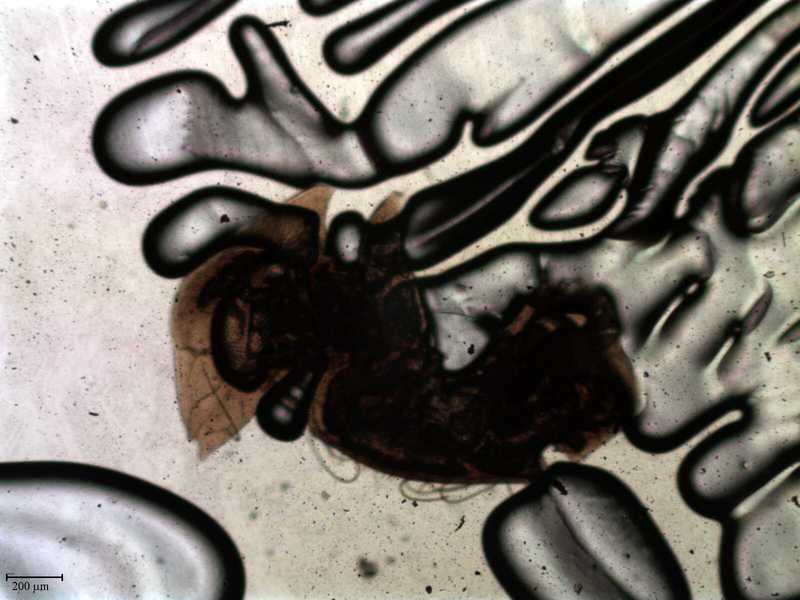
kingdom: Animalia
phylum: Arthropoda
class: Arachnida
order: Mesostigmata
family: Uropodidae
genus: Coxequesoma
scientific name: Coxequesoma
